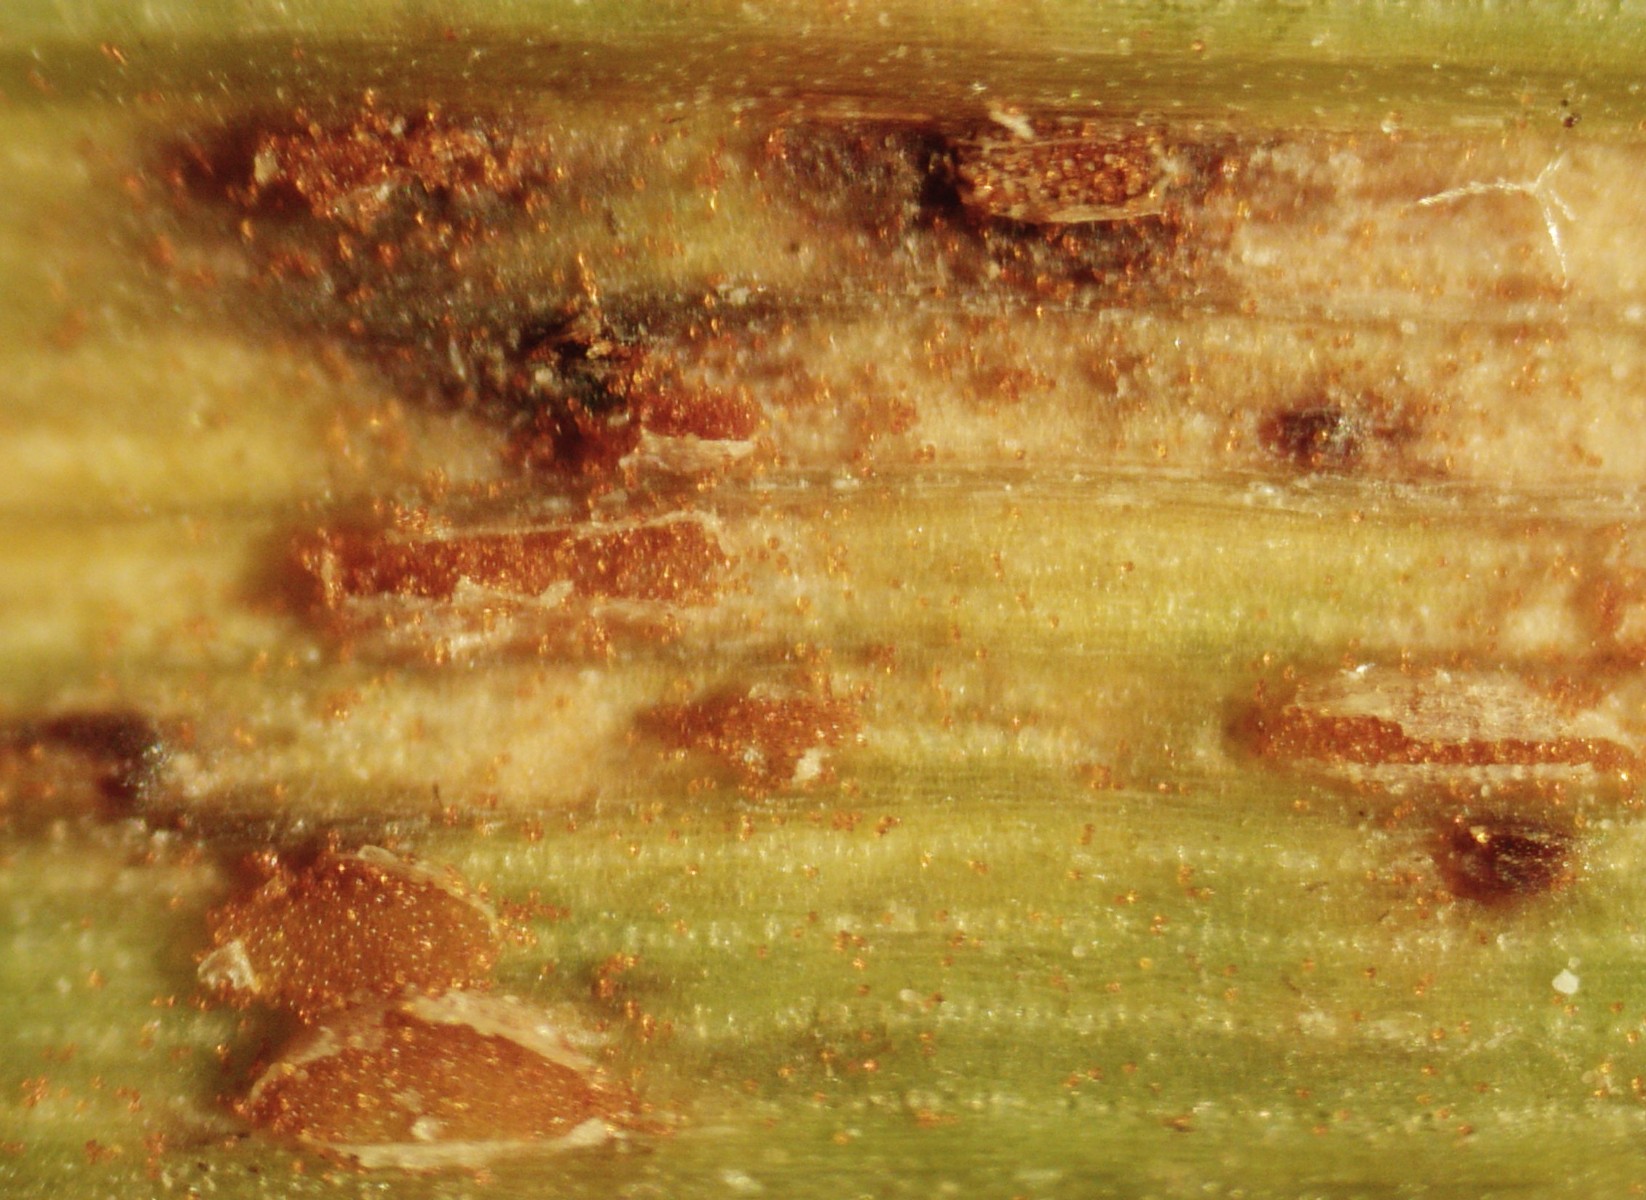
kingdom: Fungi
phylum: Basidiomycota
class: Pucciniomycetes
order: Pucciniales
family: Pucciniaceae
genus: Puccinia
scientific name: Puccinia
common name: tvecellerust
